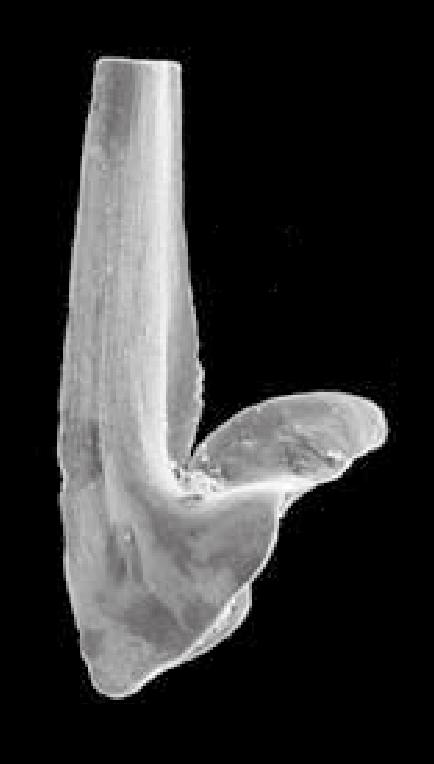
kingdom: Animalia
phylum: Chordata
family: Balognathidae
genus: Prioniodus
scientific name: Prioniodus
